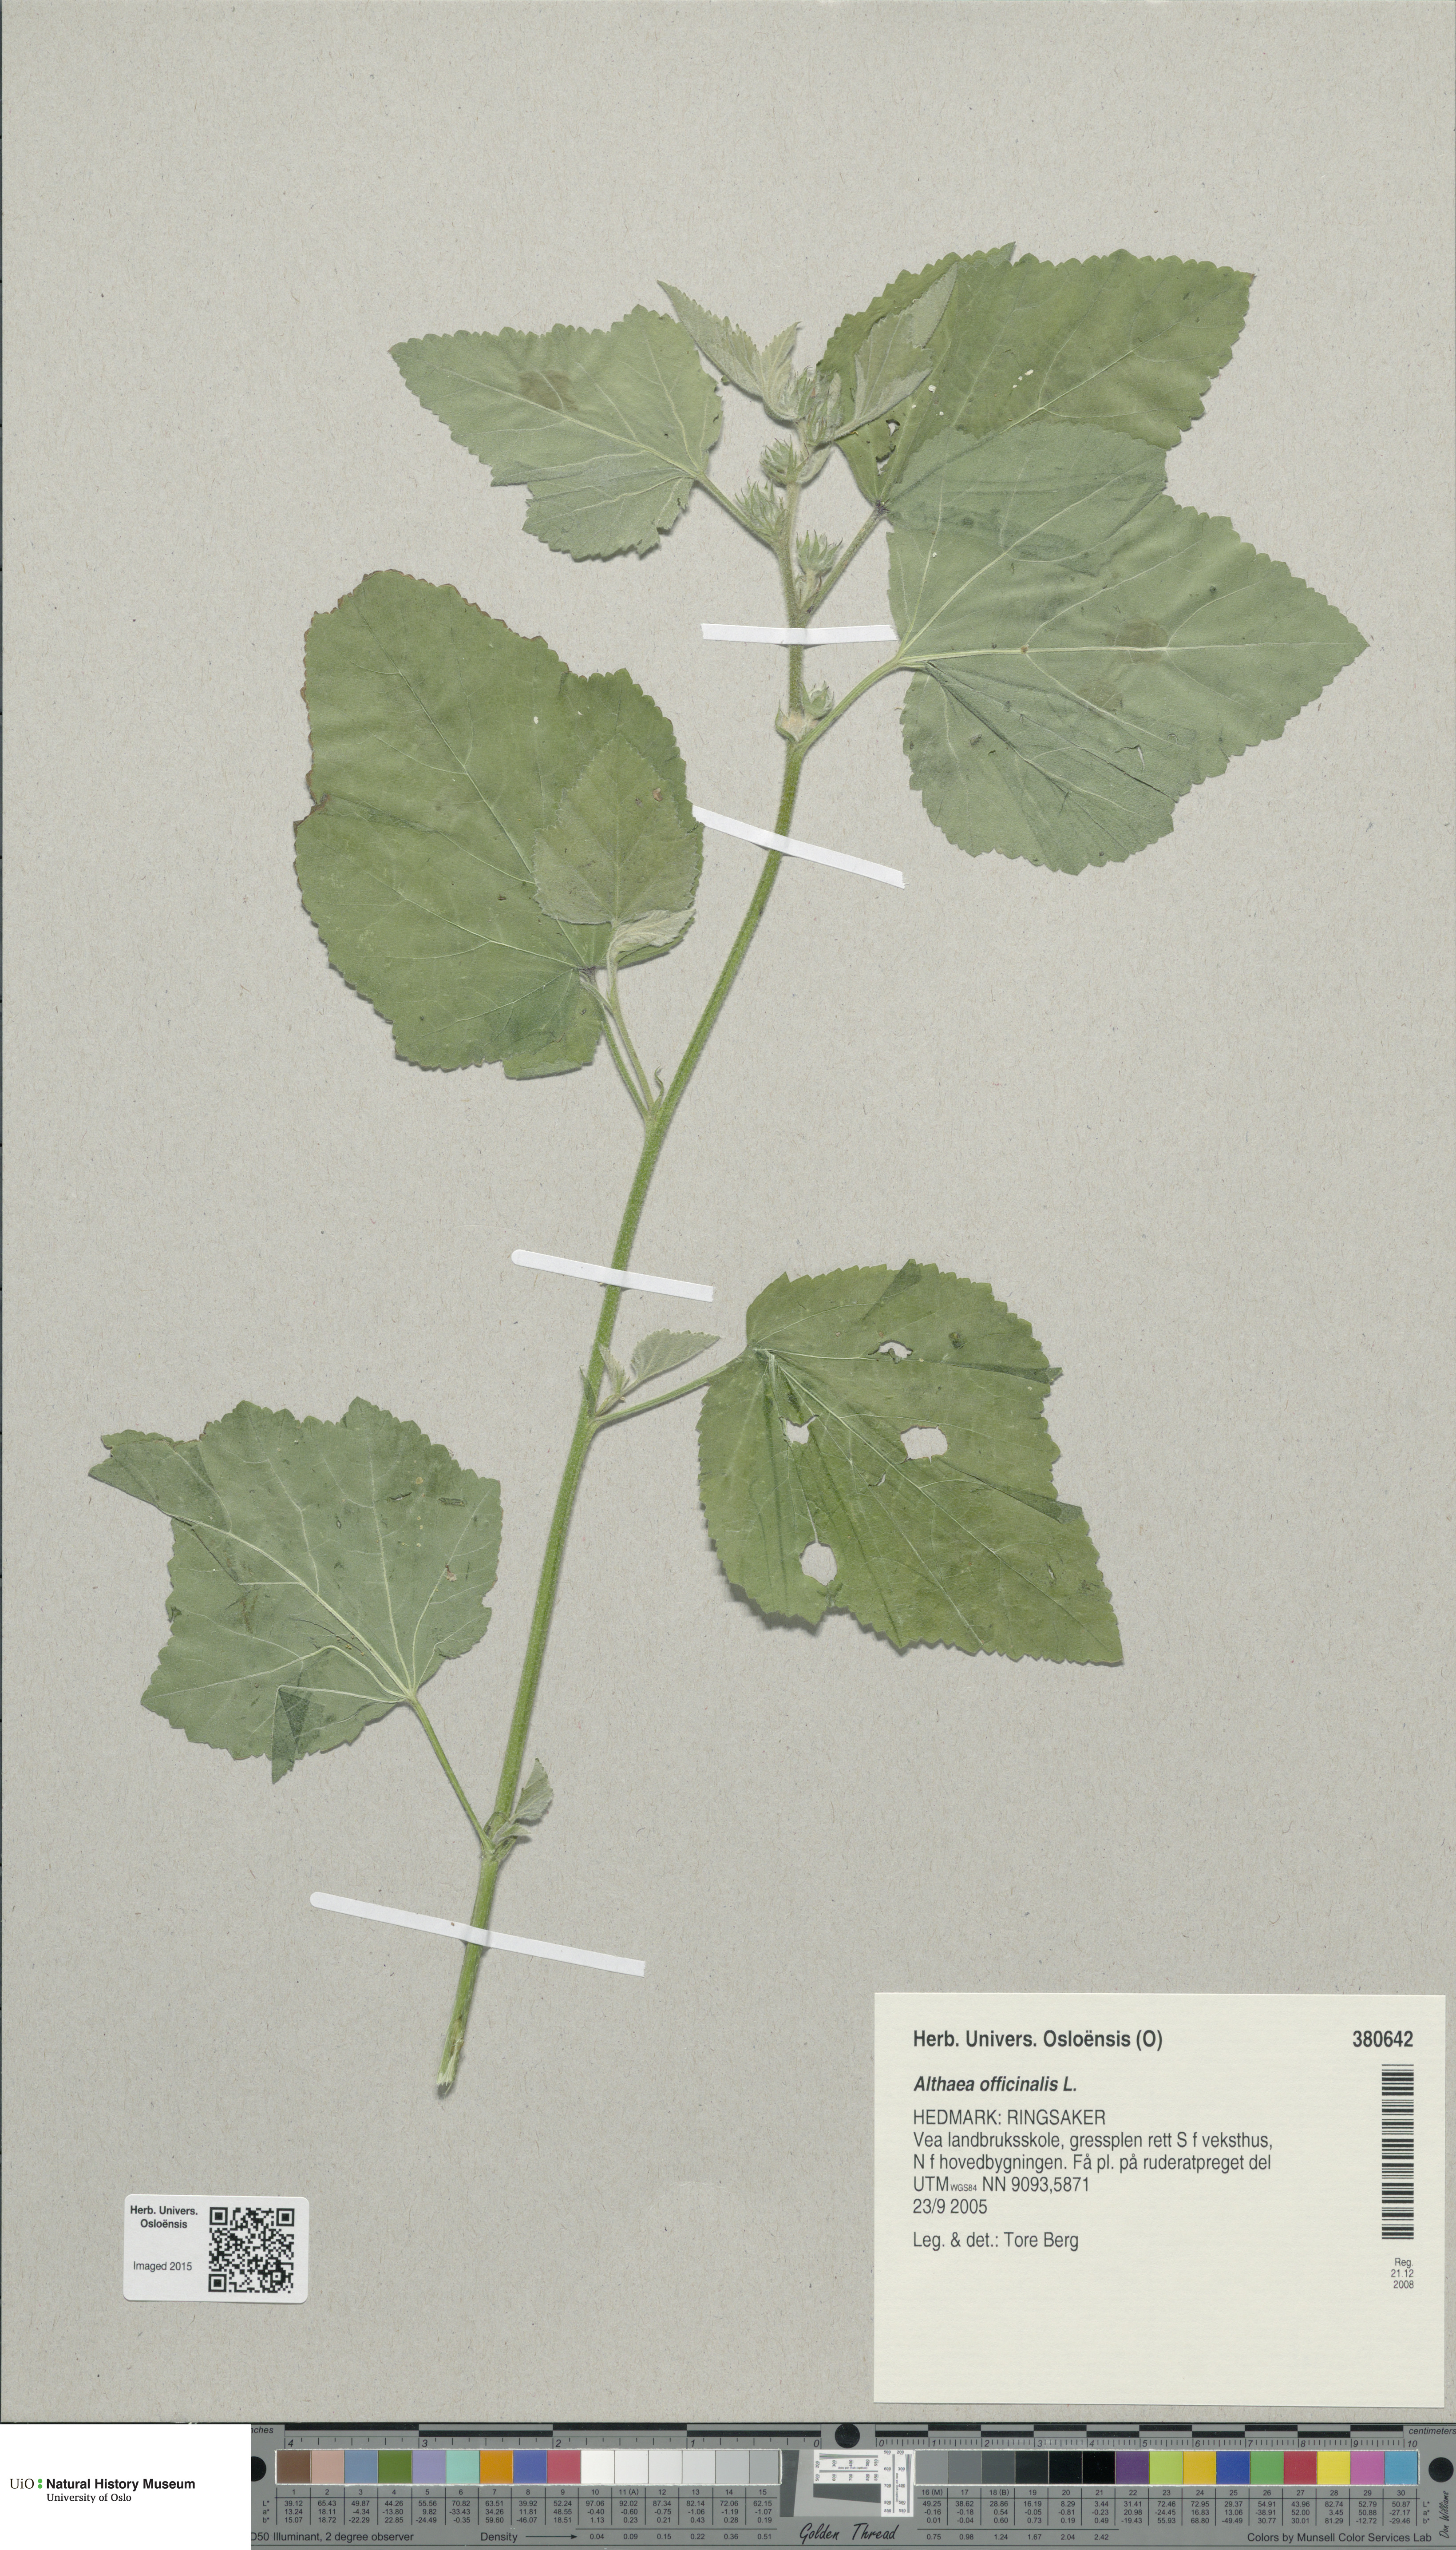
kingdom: Plantae
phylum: Tracheophyta
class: Magnoliopsida
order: Malvales
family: Malvaceae
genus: Althaea
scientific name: Althaea officinalis
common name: Marsh-mallow
